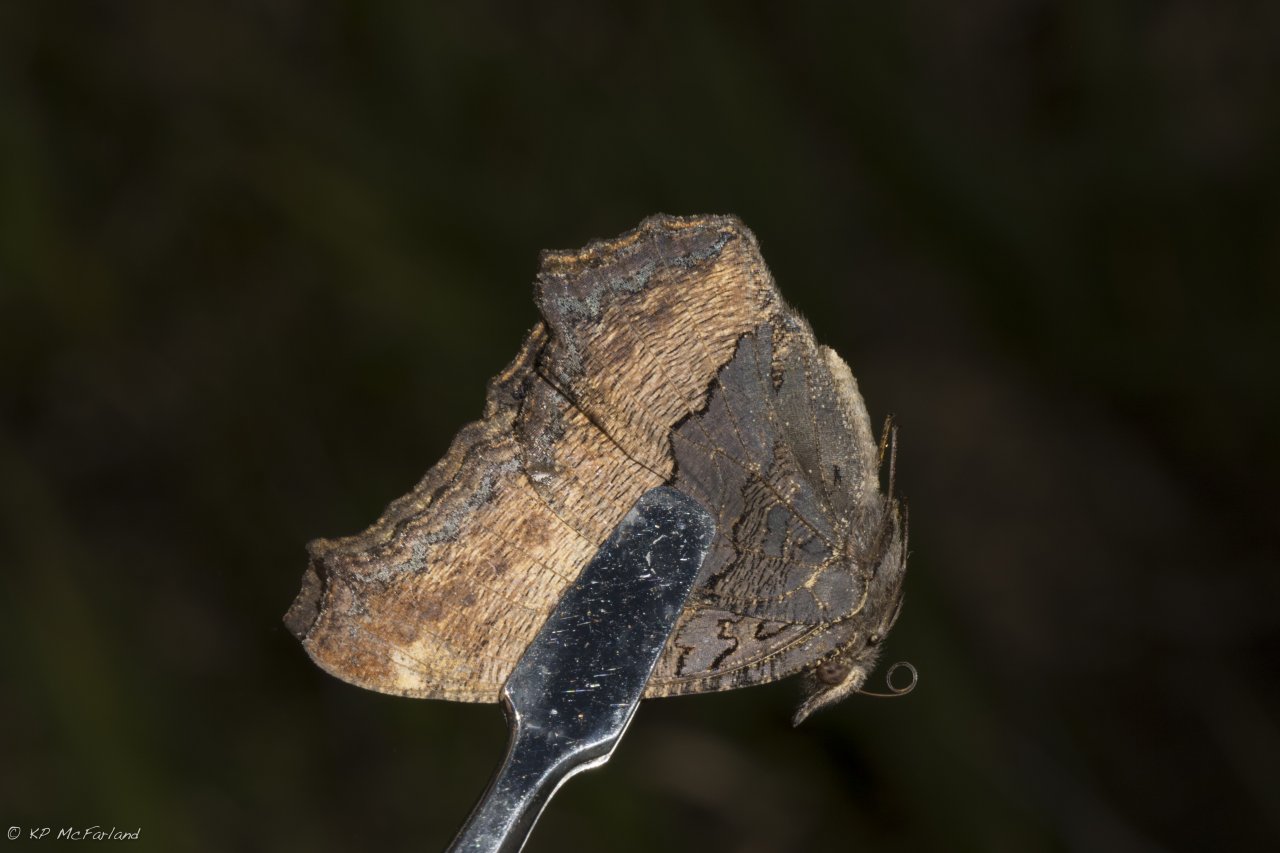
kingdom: Animalia
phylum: Arthropoda
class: Insecta
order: Lepidoptera
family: Nymphalidae
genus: Aglais
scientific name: Aglais milberti
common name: Milbert's Tortoiseshell
